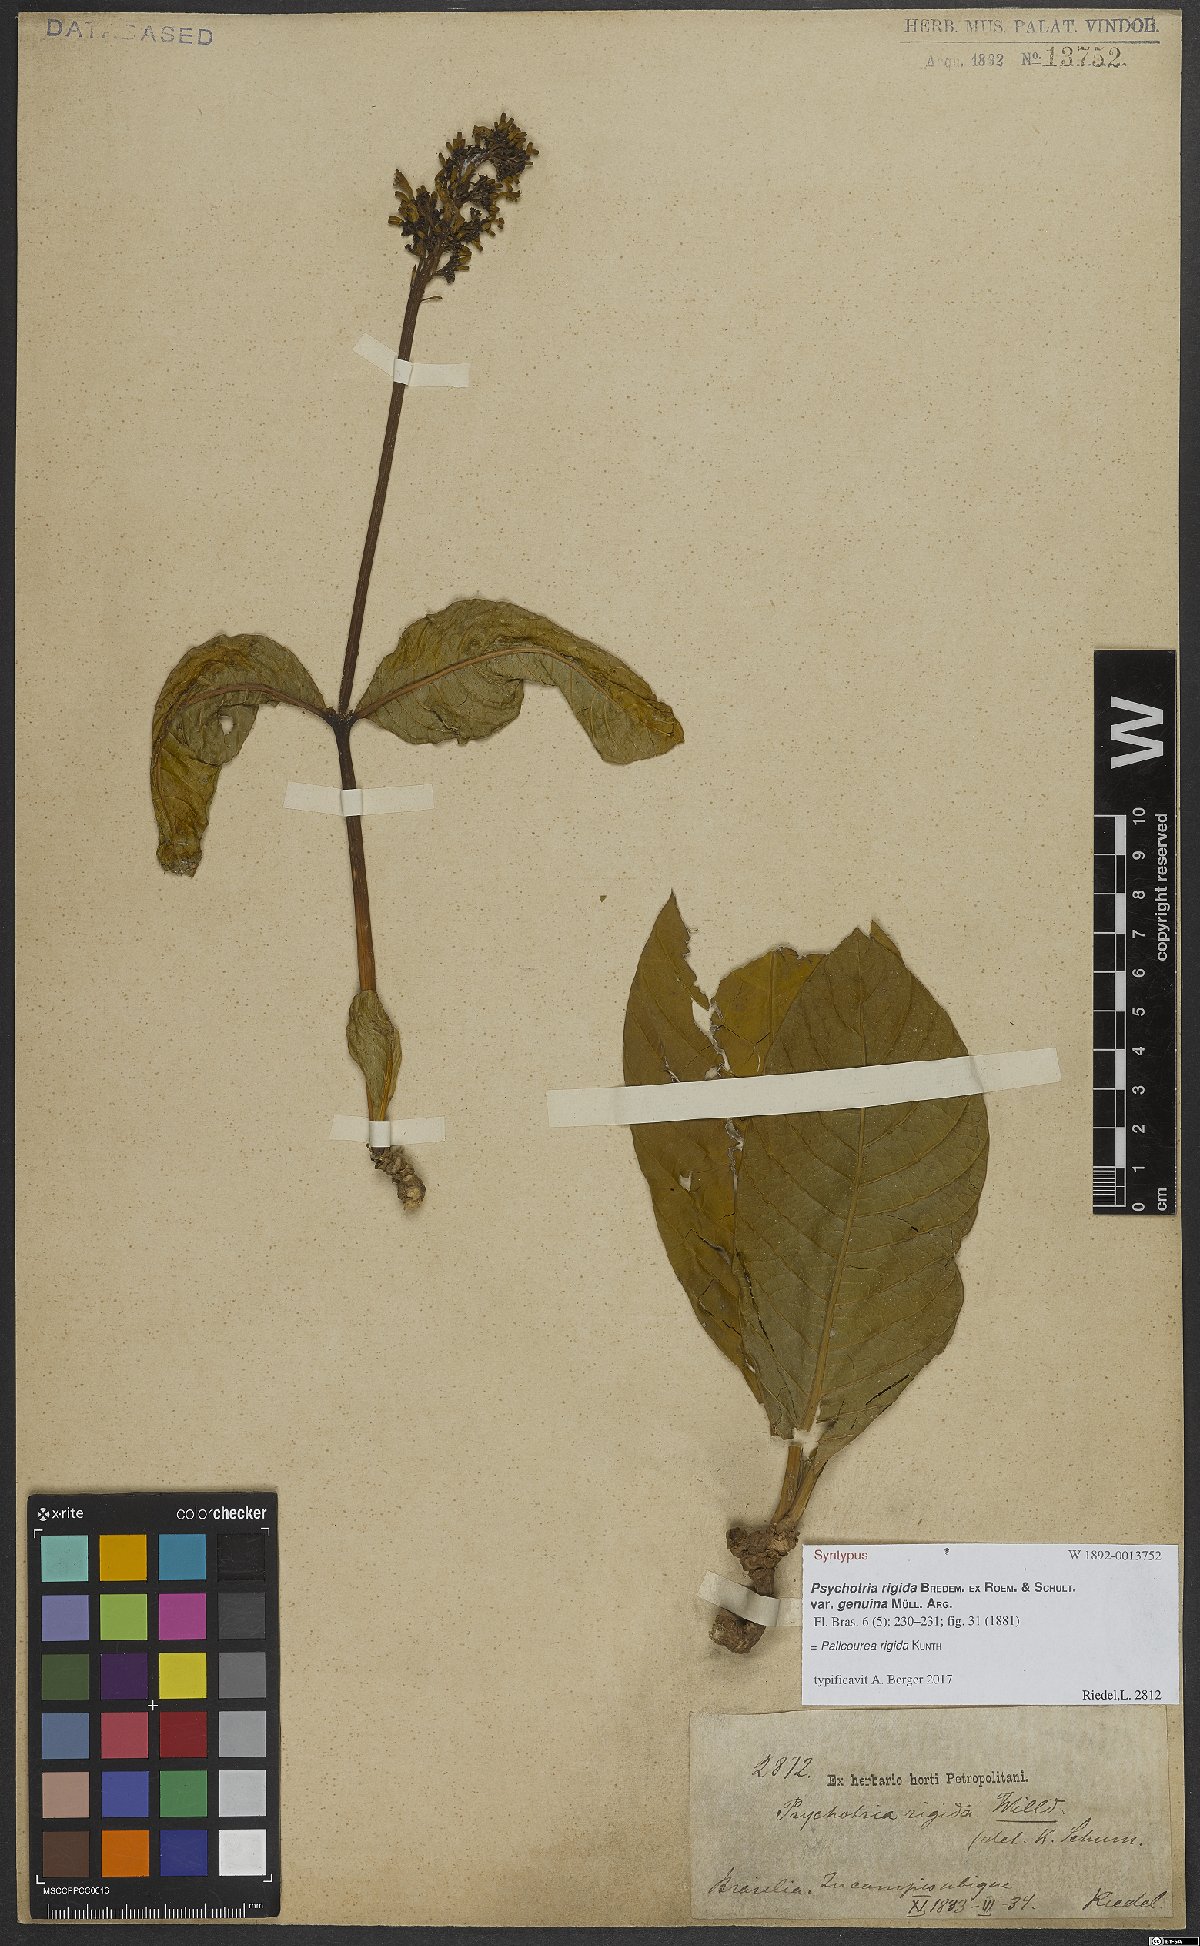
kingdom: Plantae
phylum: Tracheophyta
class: Magnoliopsida
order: Gentianales
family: Rubiaceae
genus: Palicourea
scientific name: Palicourea rigida
